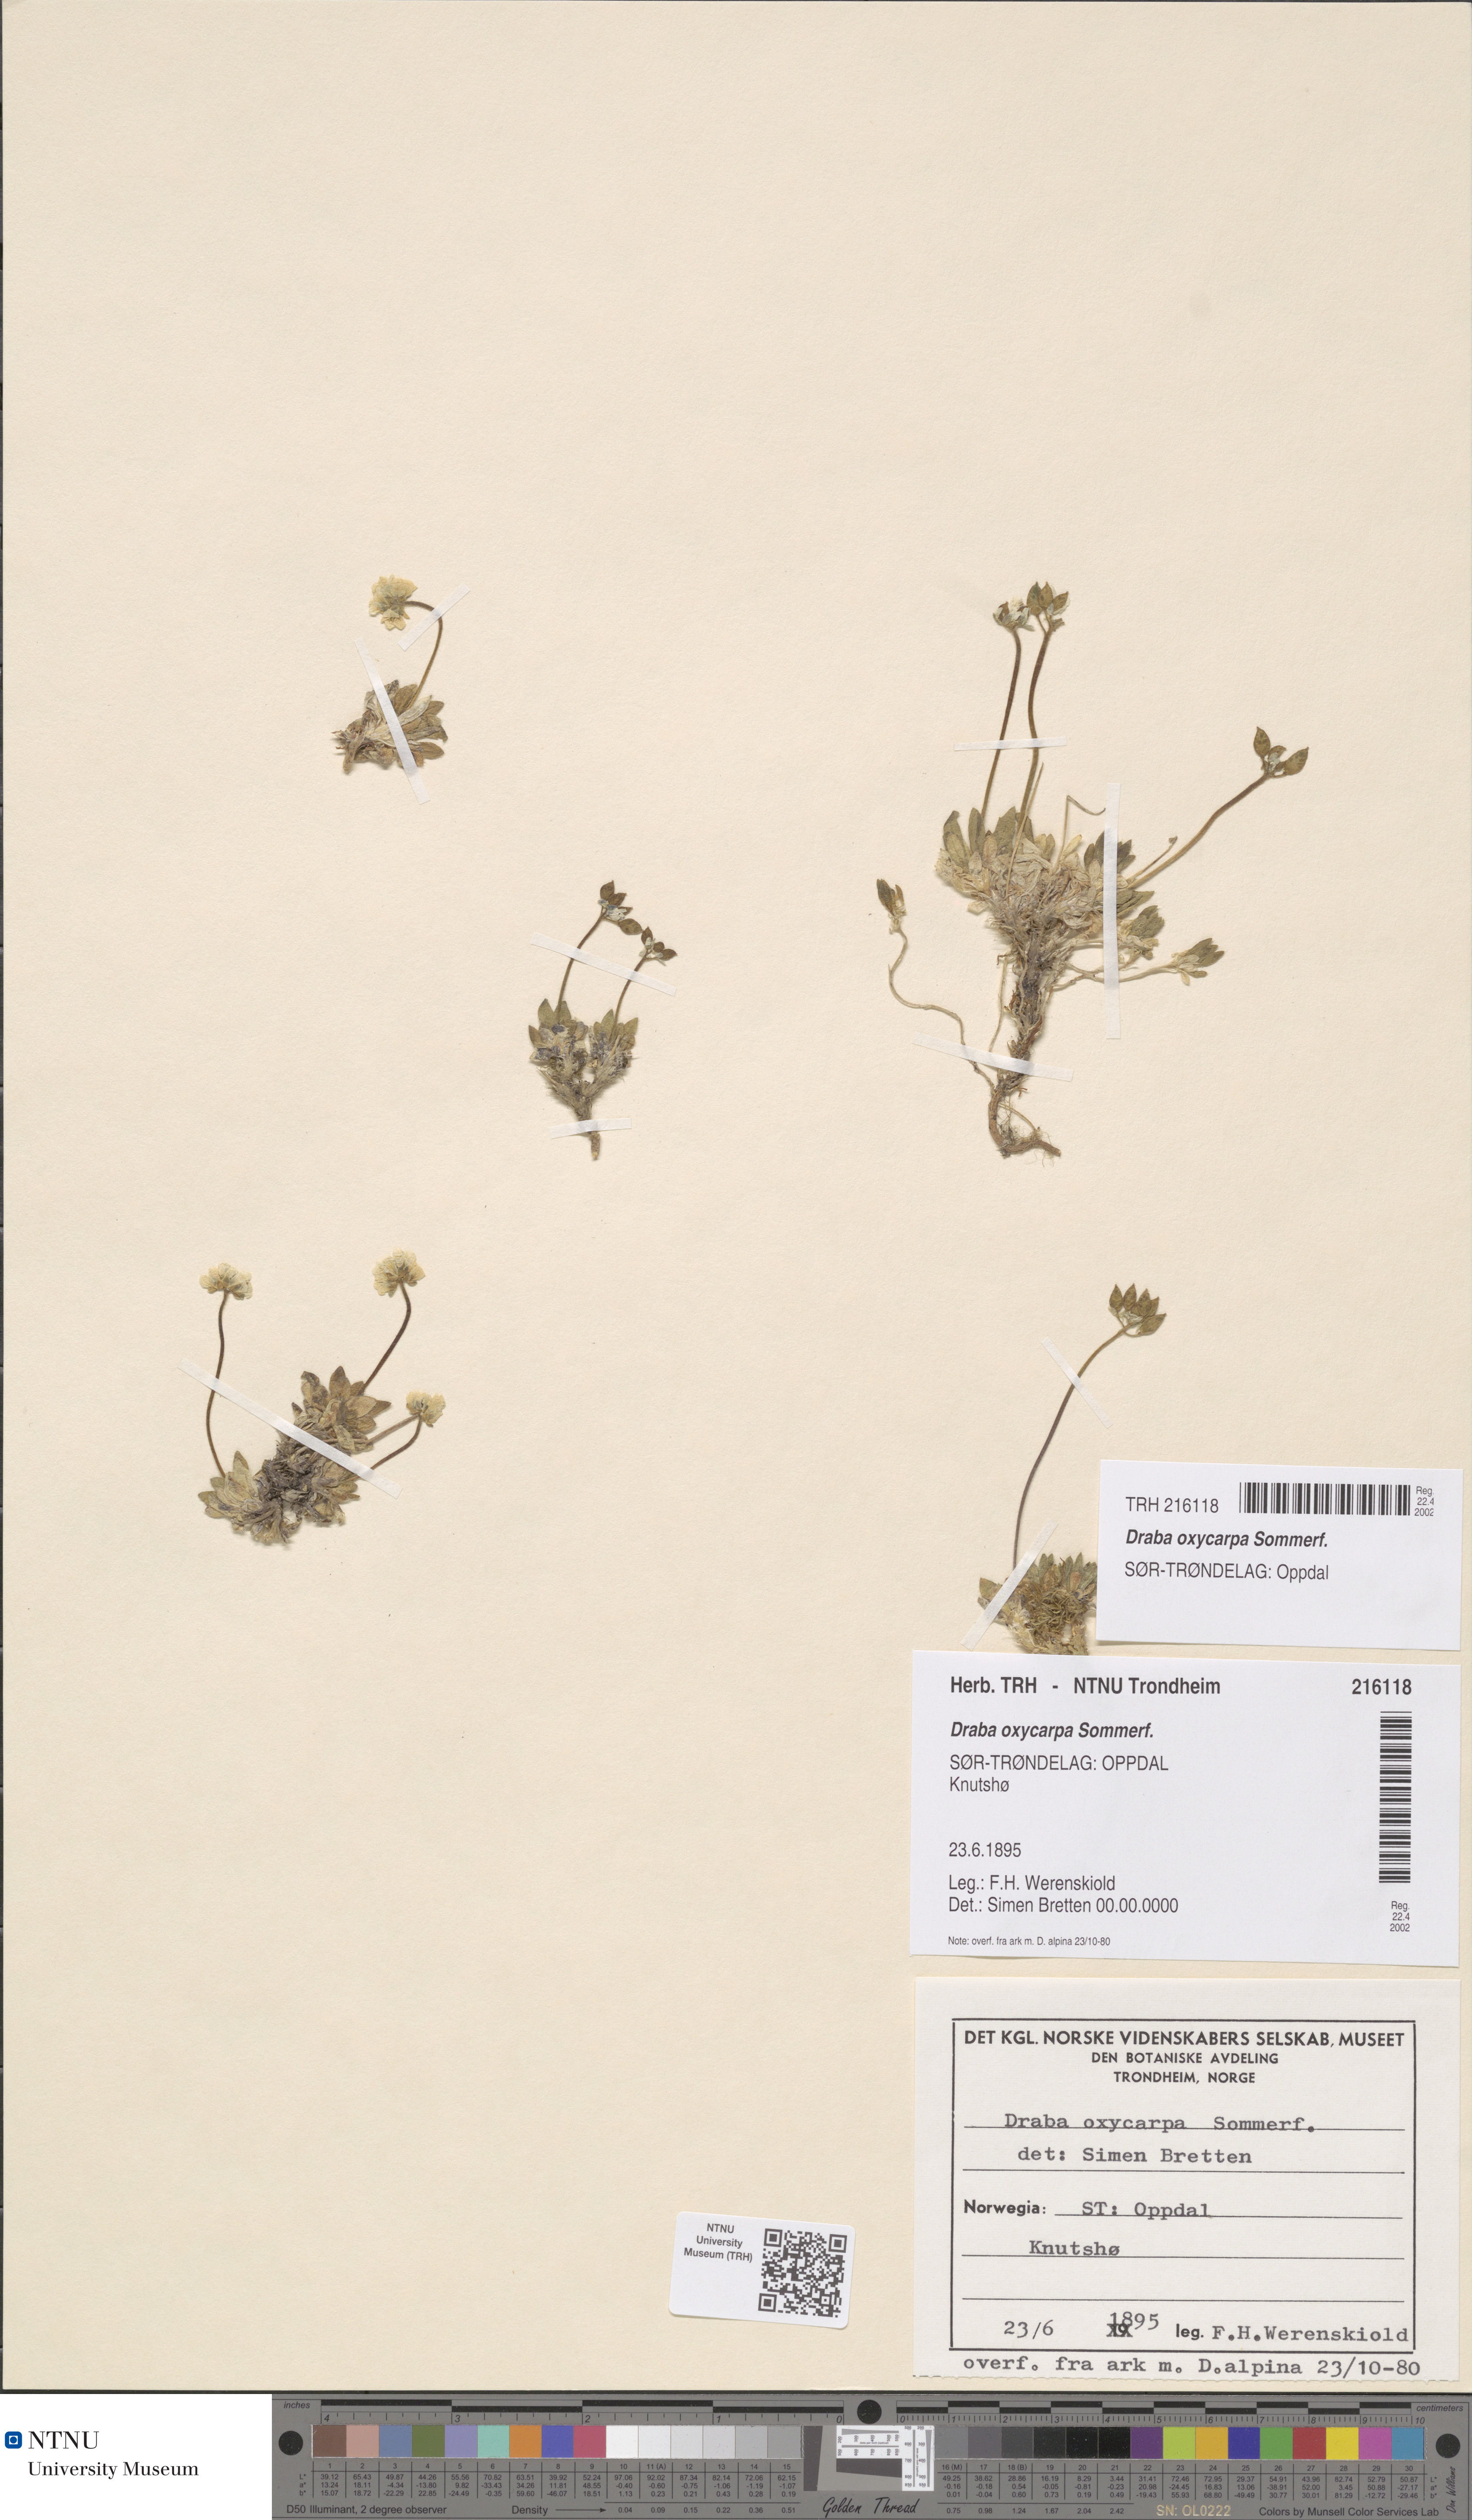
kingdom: Plantae
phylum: Tracheophyta
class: Magnoliopsida
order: Brassicales
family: Brassicaceae
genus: Draba
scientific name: Draba oxycarpa
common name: Sharp-fruited whitlow-grass
